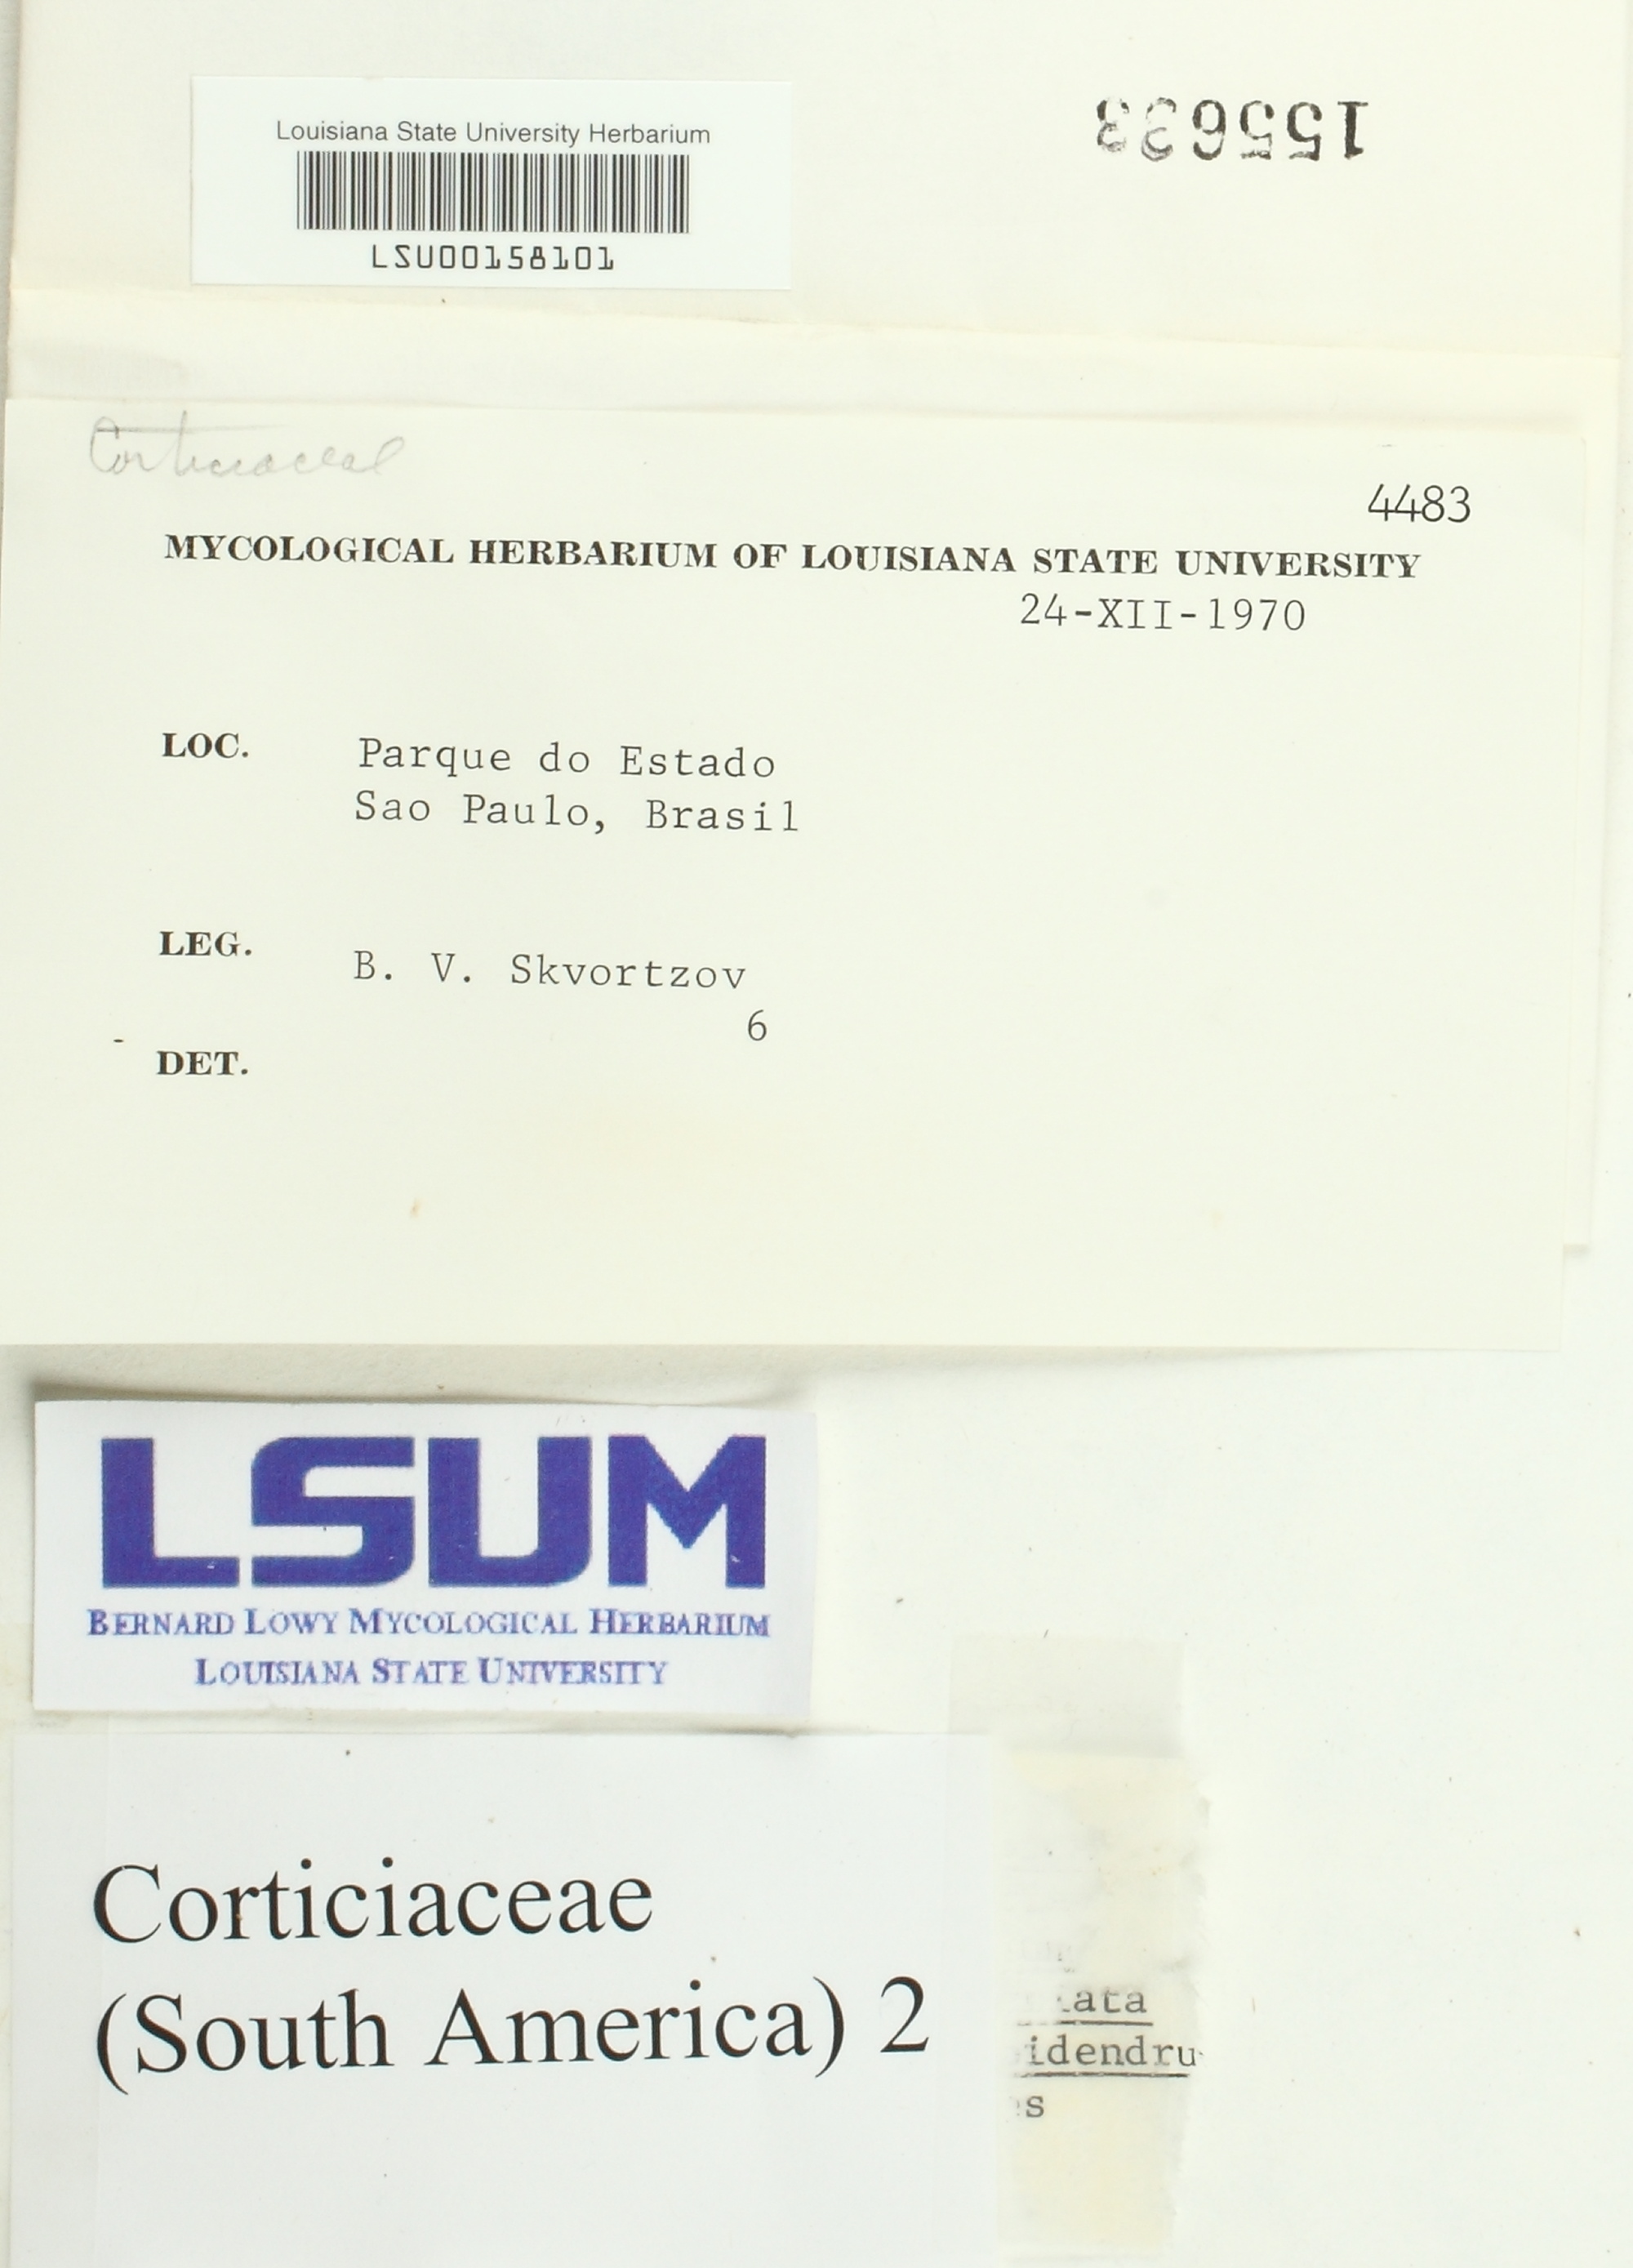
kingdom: Fungi
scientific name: Fungi
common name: Fungi
